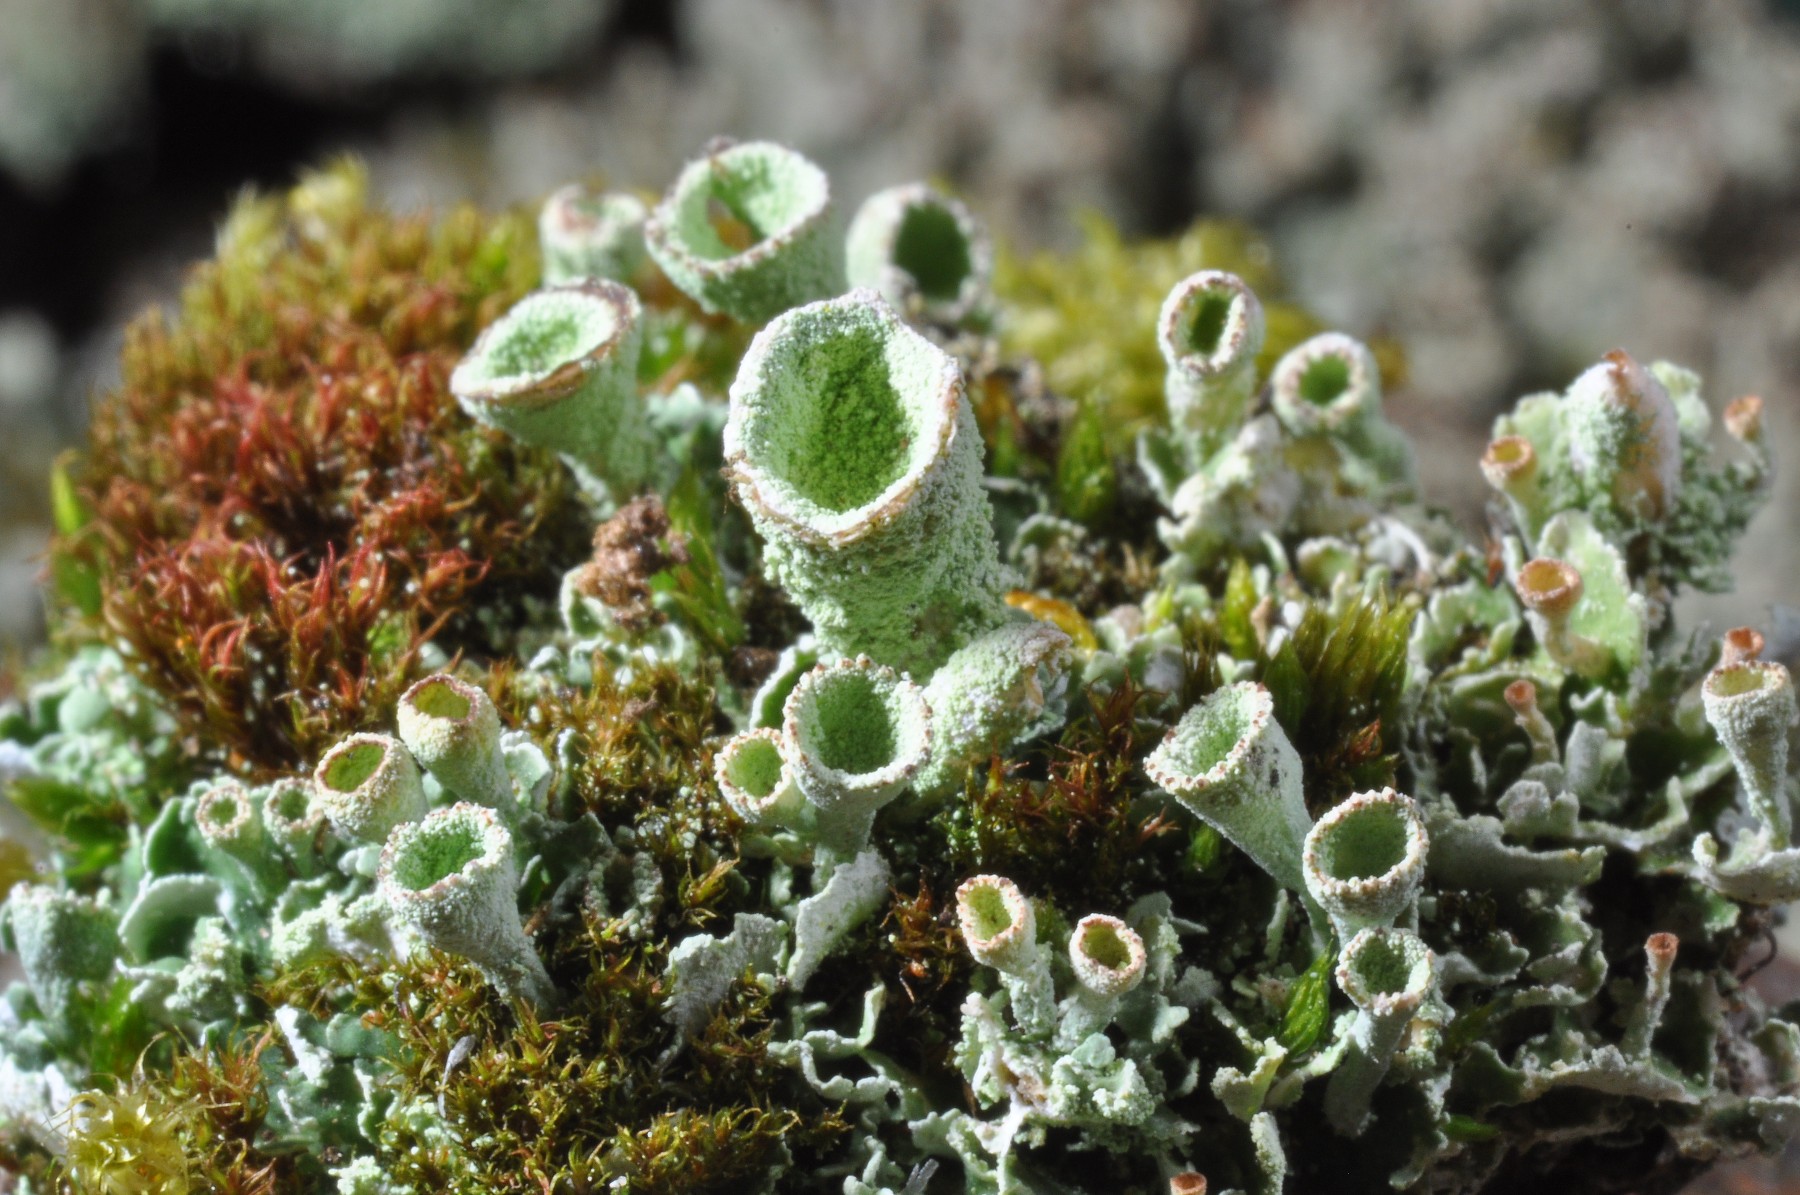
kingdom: Fungi
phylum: Ascomycota
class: Lecanoromycetes
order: Lecanorales
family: Cladoniaceae
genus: Cladonia
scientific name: Cladonia humilis
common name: lav bægerlav
